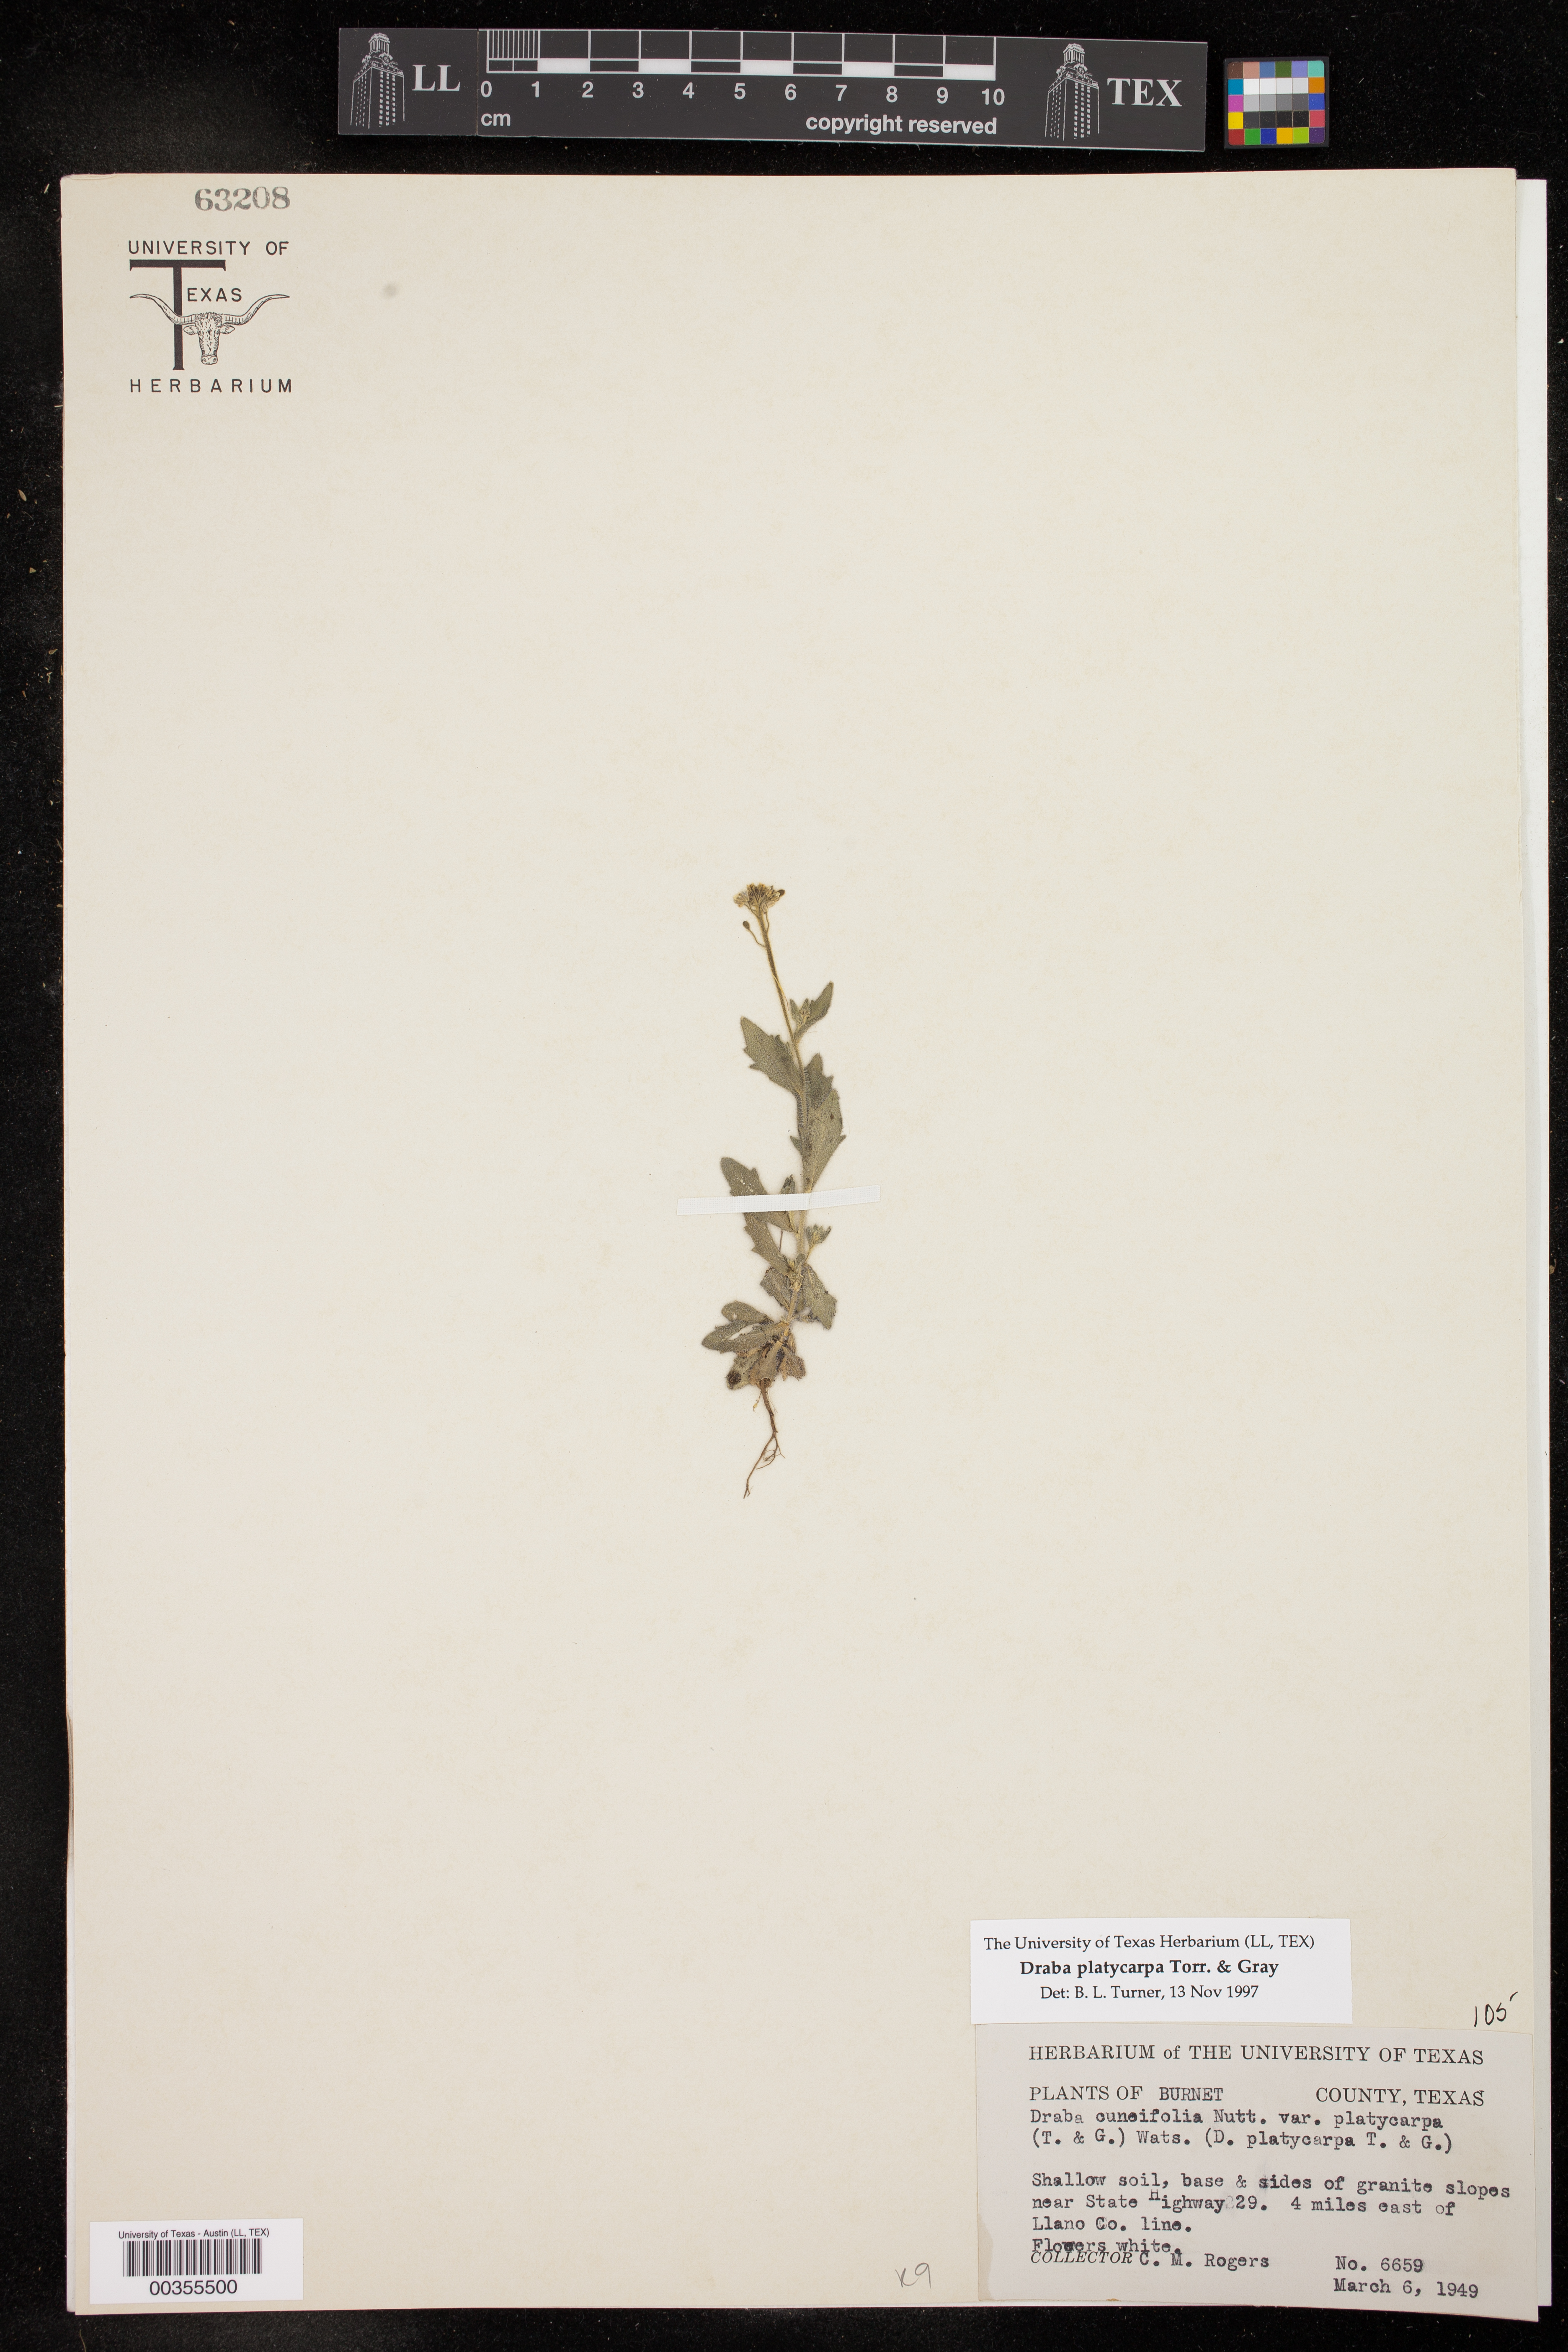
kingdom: Plantae
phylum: Tracheophyta
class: Magnoliopsida
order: Brassicales
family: Brassicaceae
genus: Tomostima
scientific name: Tomostima platycarpa
